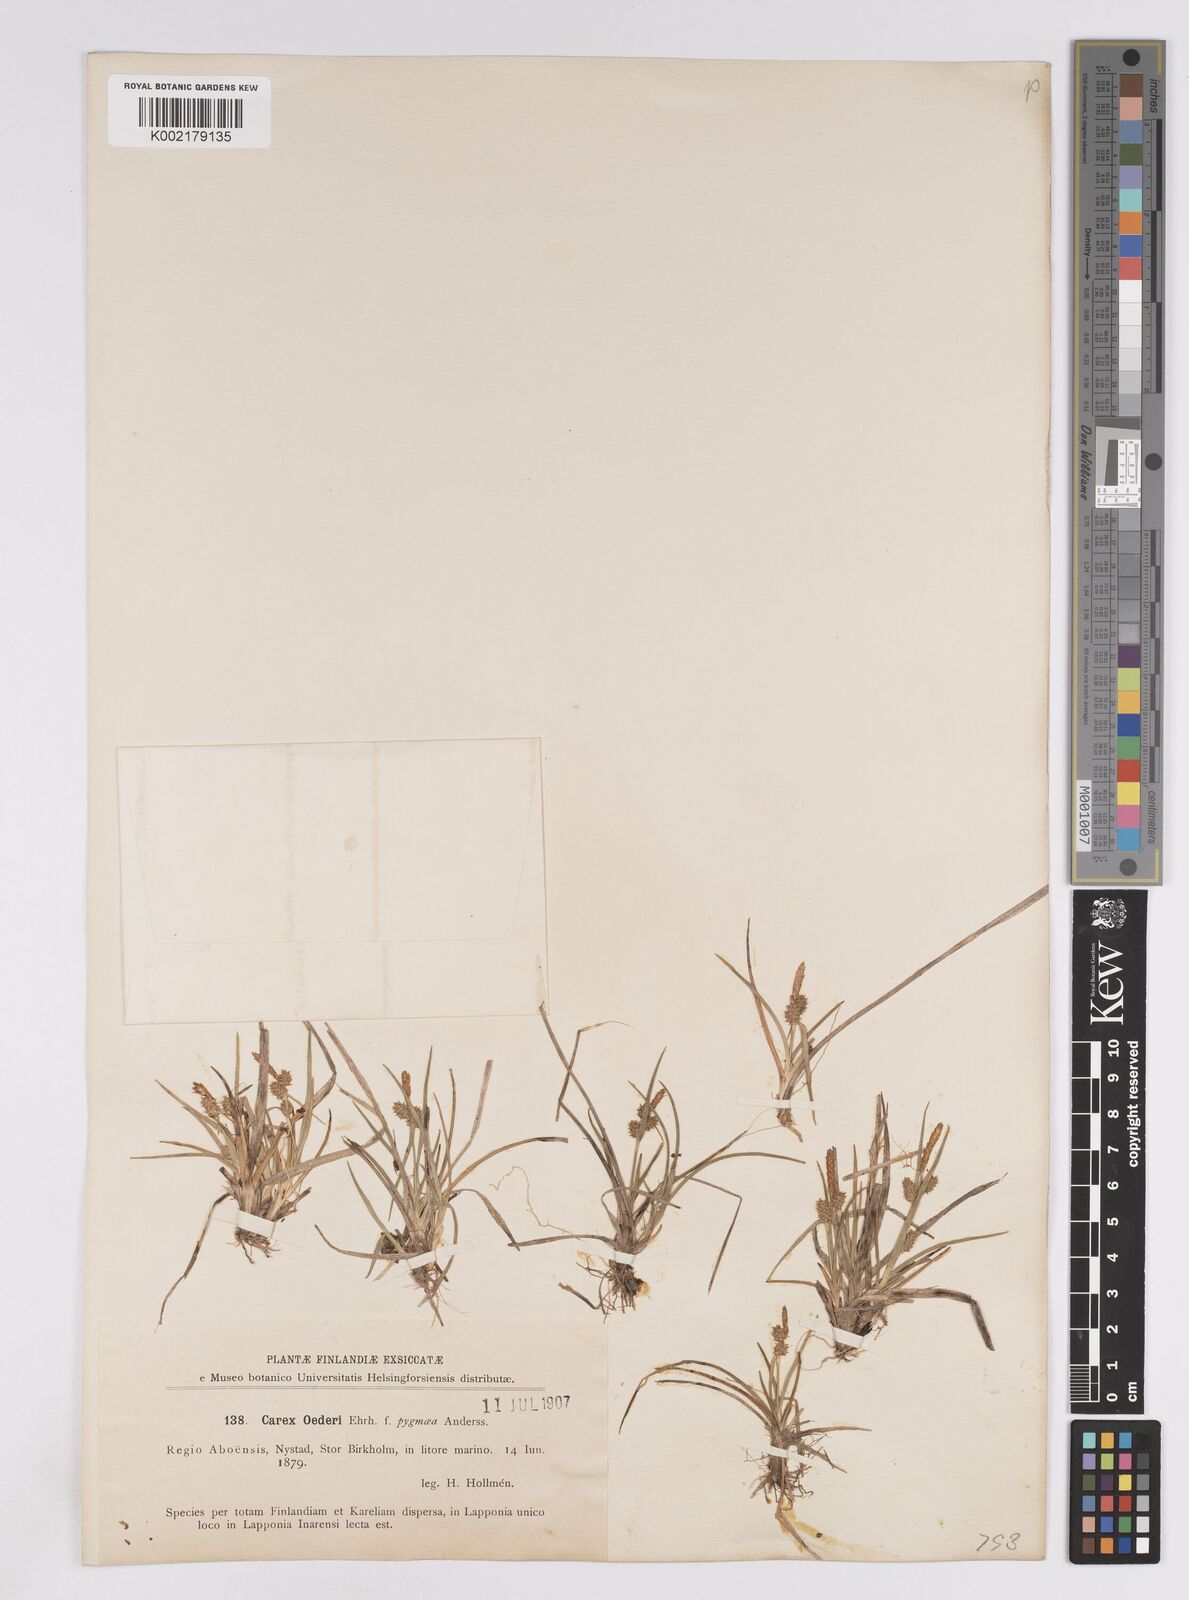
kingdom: Plantae
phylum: Tracheophyta
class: Liliopsida
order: Poales
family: Cyperaceae
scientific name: Cyperaceae
